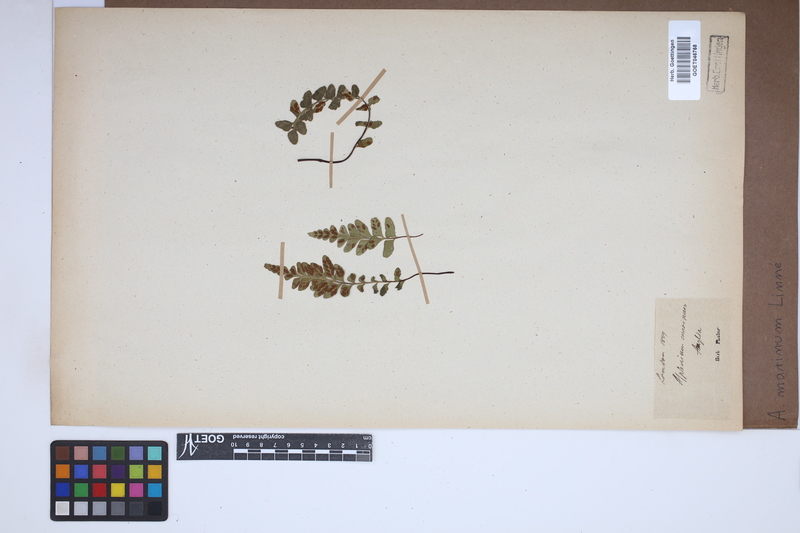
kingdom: Plantae
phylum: Tracheophyta
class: Polypodiopsida
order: Polypodiales
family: Aspleniaceae
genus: Asplenium
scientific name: Asplenium marinum
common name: Sea spleenwort
